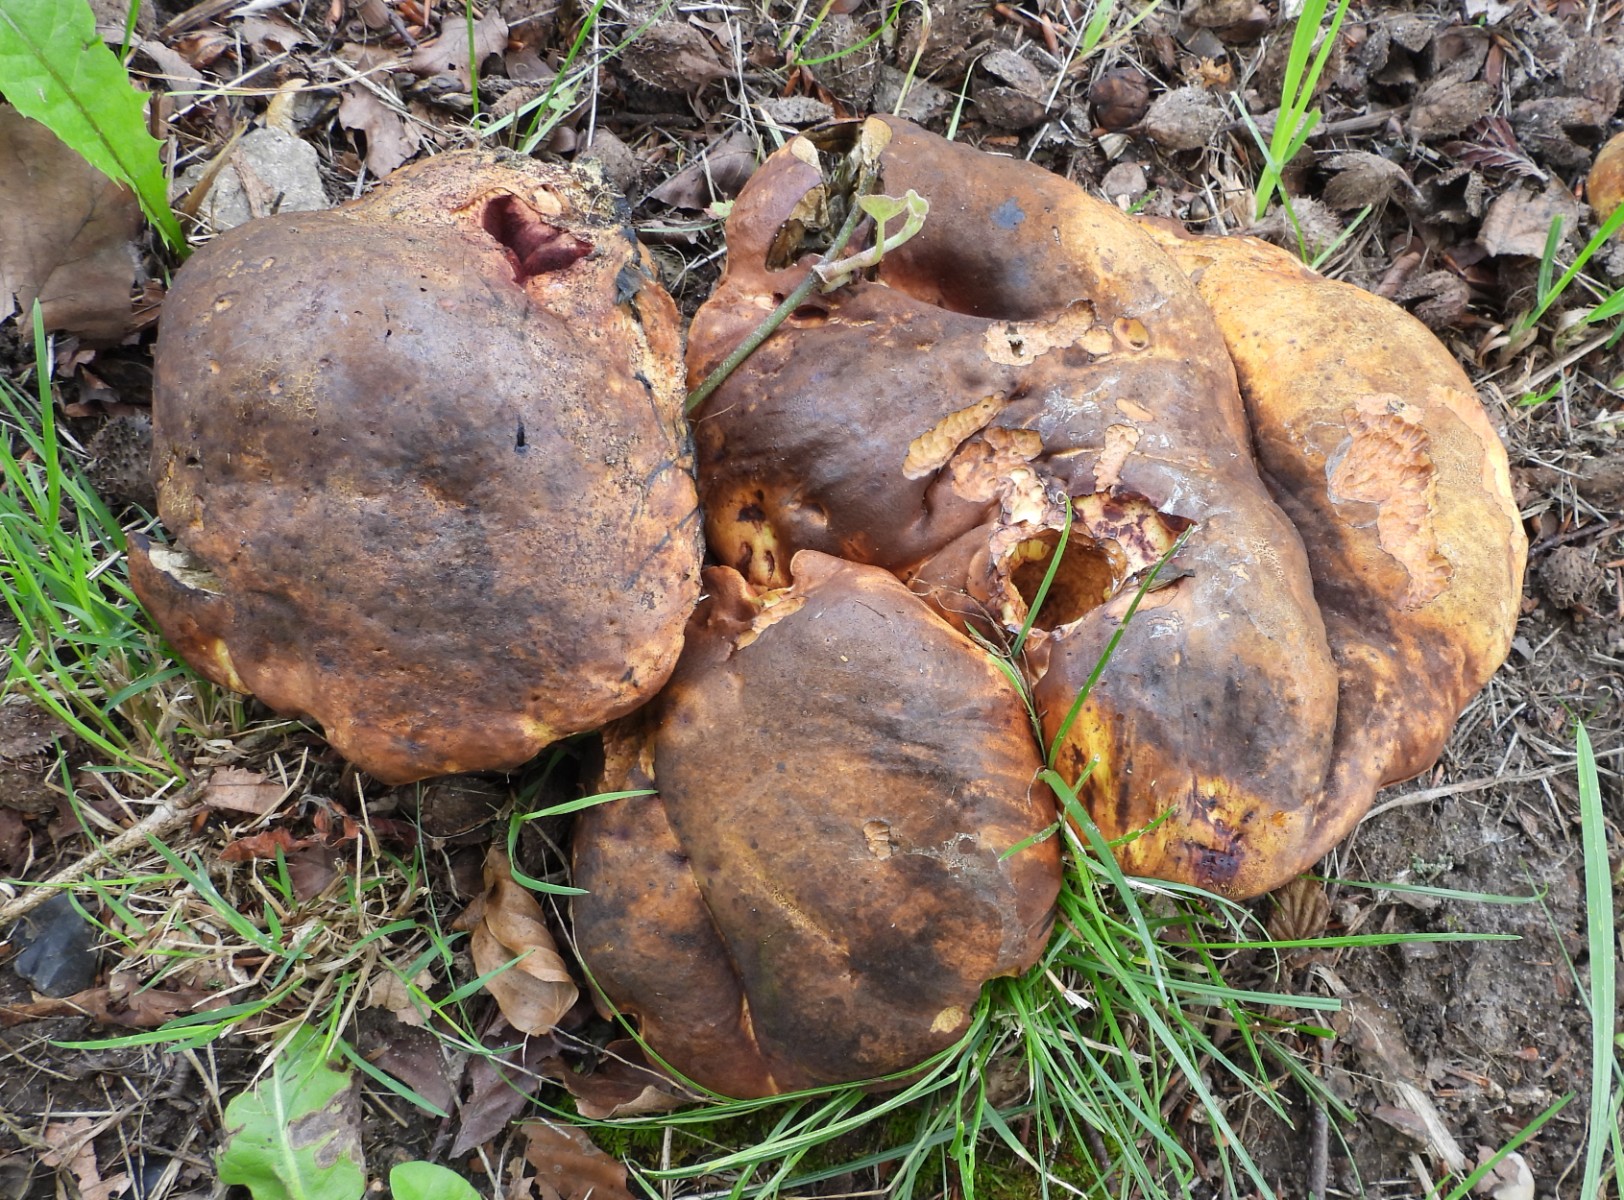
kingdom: Fungi
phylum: Basidiomycota
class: Agaricomycetes
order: Boletales
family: Boletaceae
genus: Neoboletus
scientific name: Neoboletus erythropus
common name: punktstokket indigorørhat
